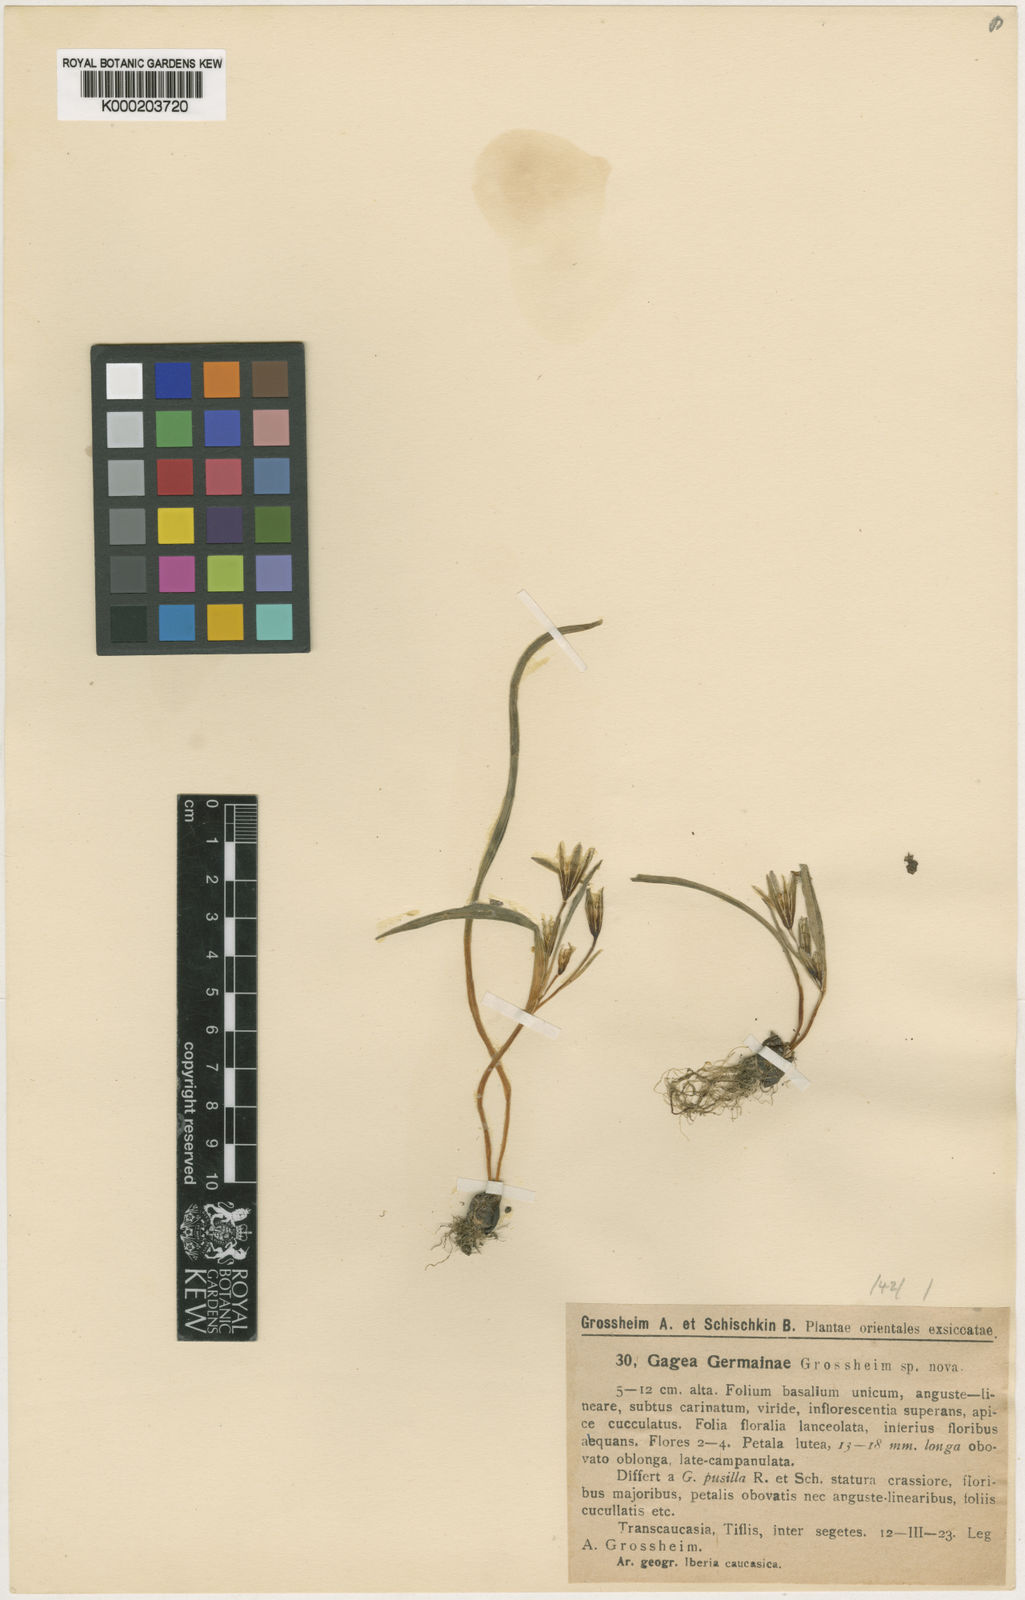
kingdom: Plantae
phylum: Tracheophyta
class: Liliopsida
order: Liliales
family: Liliaceae
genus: Gagea
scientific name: Gagea germainae
